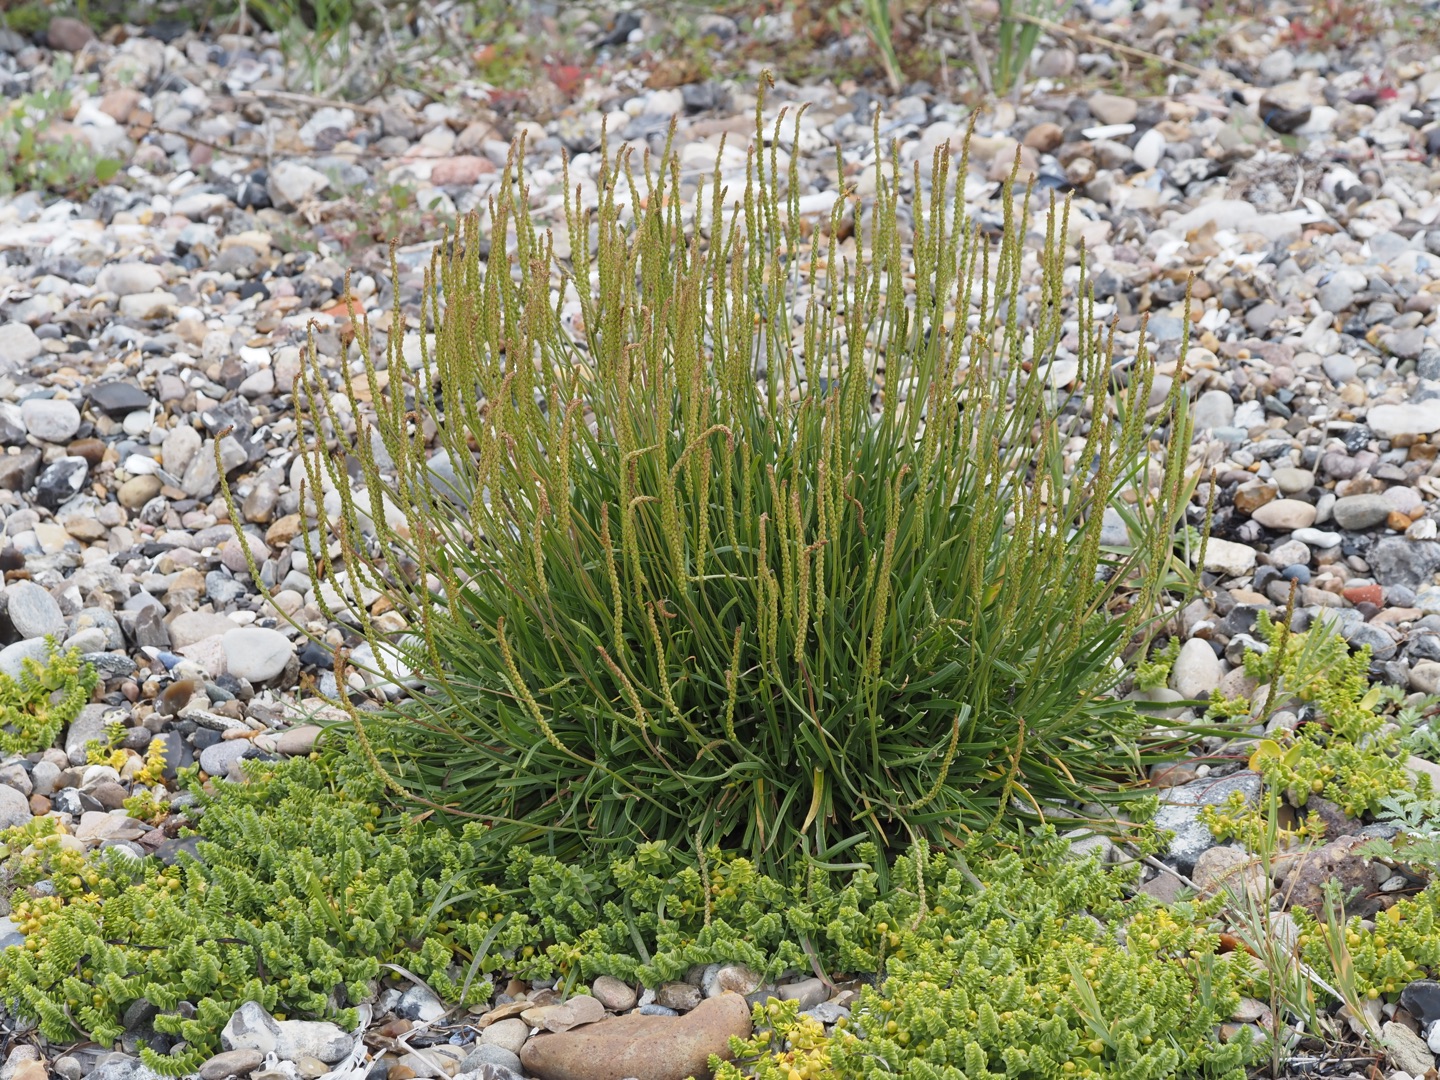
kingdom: Plantae
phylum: Tracheophyta
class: Magnoliopsida
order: Lamiales
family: Plantaginaceae
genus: Plantago
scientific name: Plantago maritima
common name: Strand-vejbred
